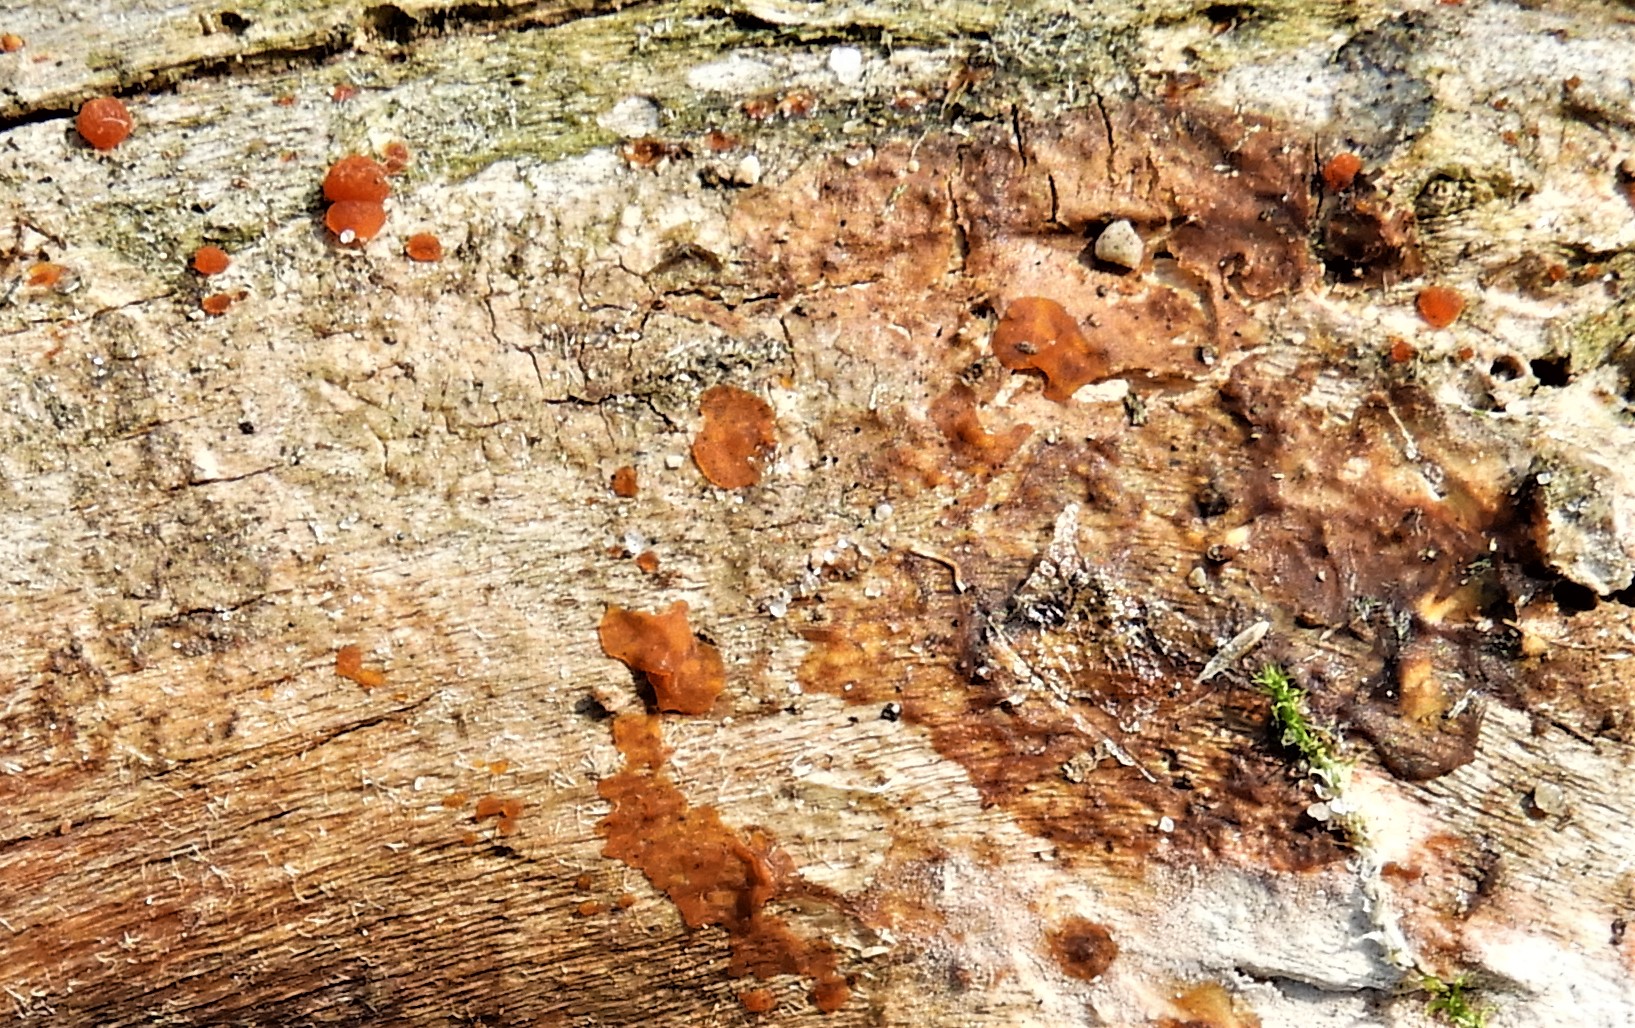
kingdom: Fungi
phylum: Basidiomycota
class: Dacrymycetes
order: Dacrymycetales
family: Dacrymycetaceae
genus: Dacrymyces
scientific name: Dacrymyces stillatus
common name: almindelig tåresvamp
